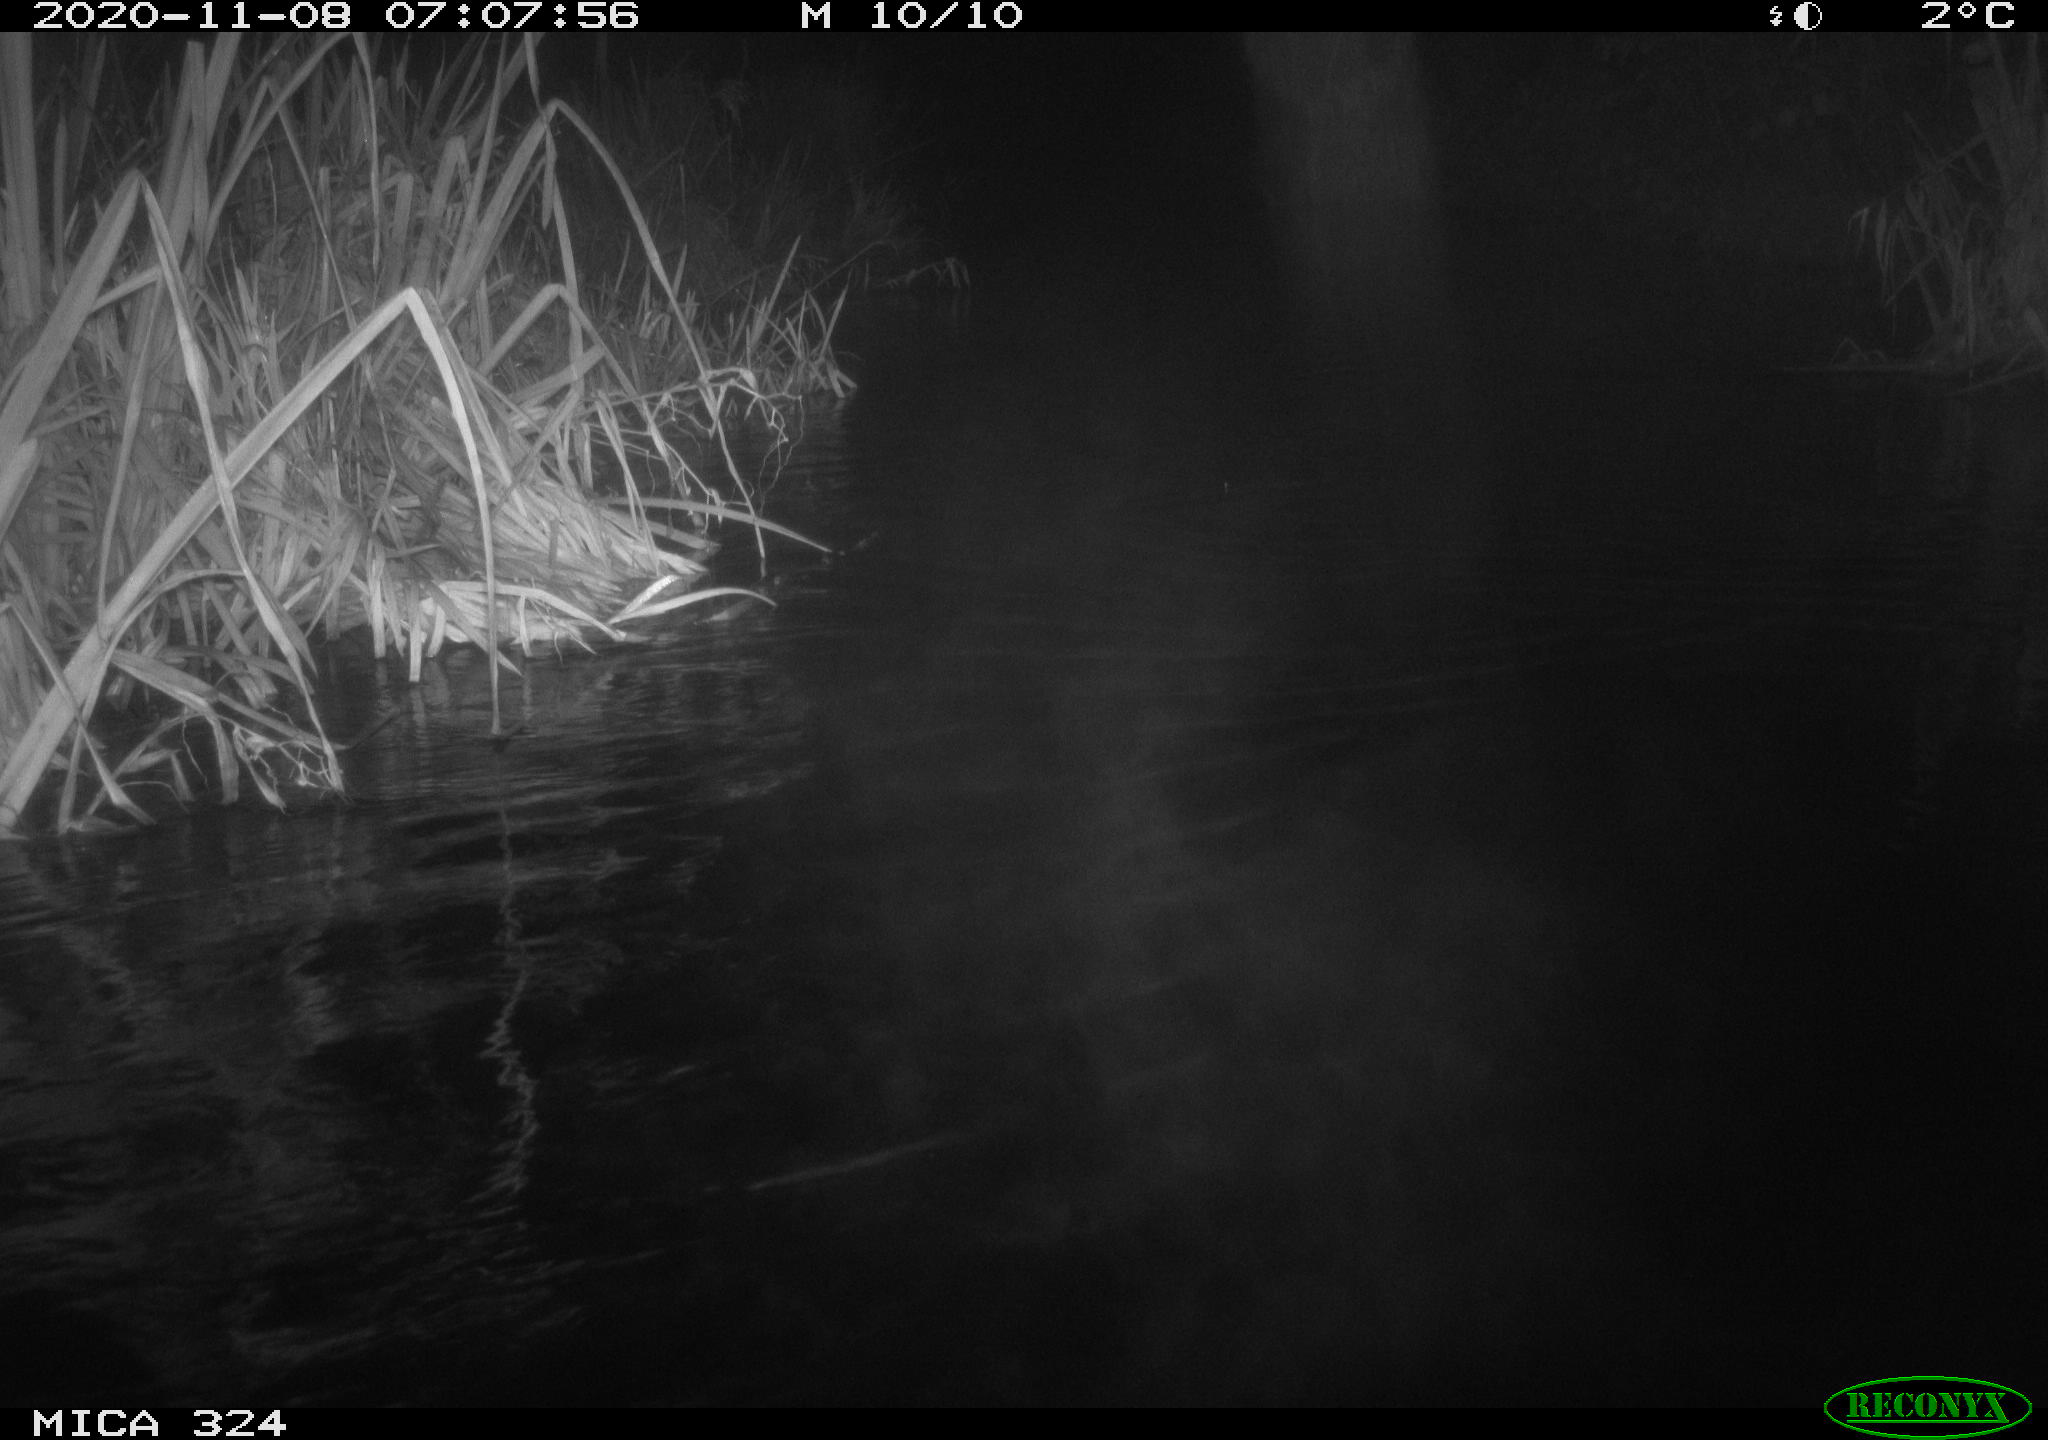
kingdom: Animalia
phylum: Chordata
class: Mammalia
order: Rodentia
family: Cricetidae
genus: Ondatra
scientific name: Ondatra zibethicus
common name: Muskrat
